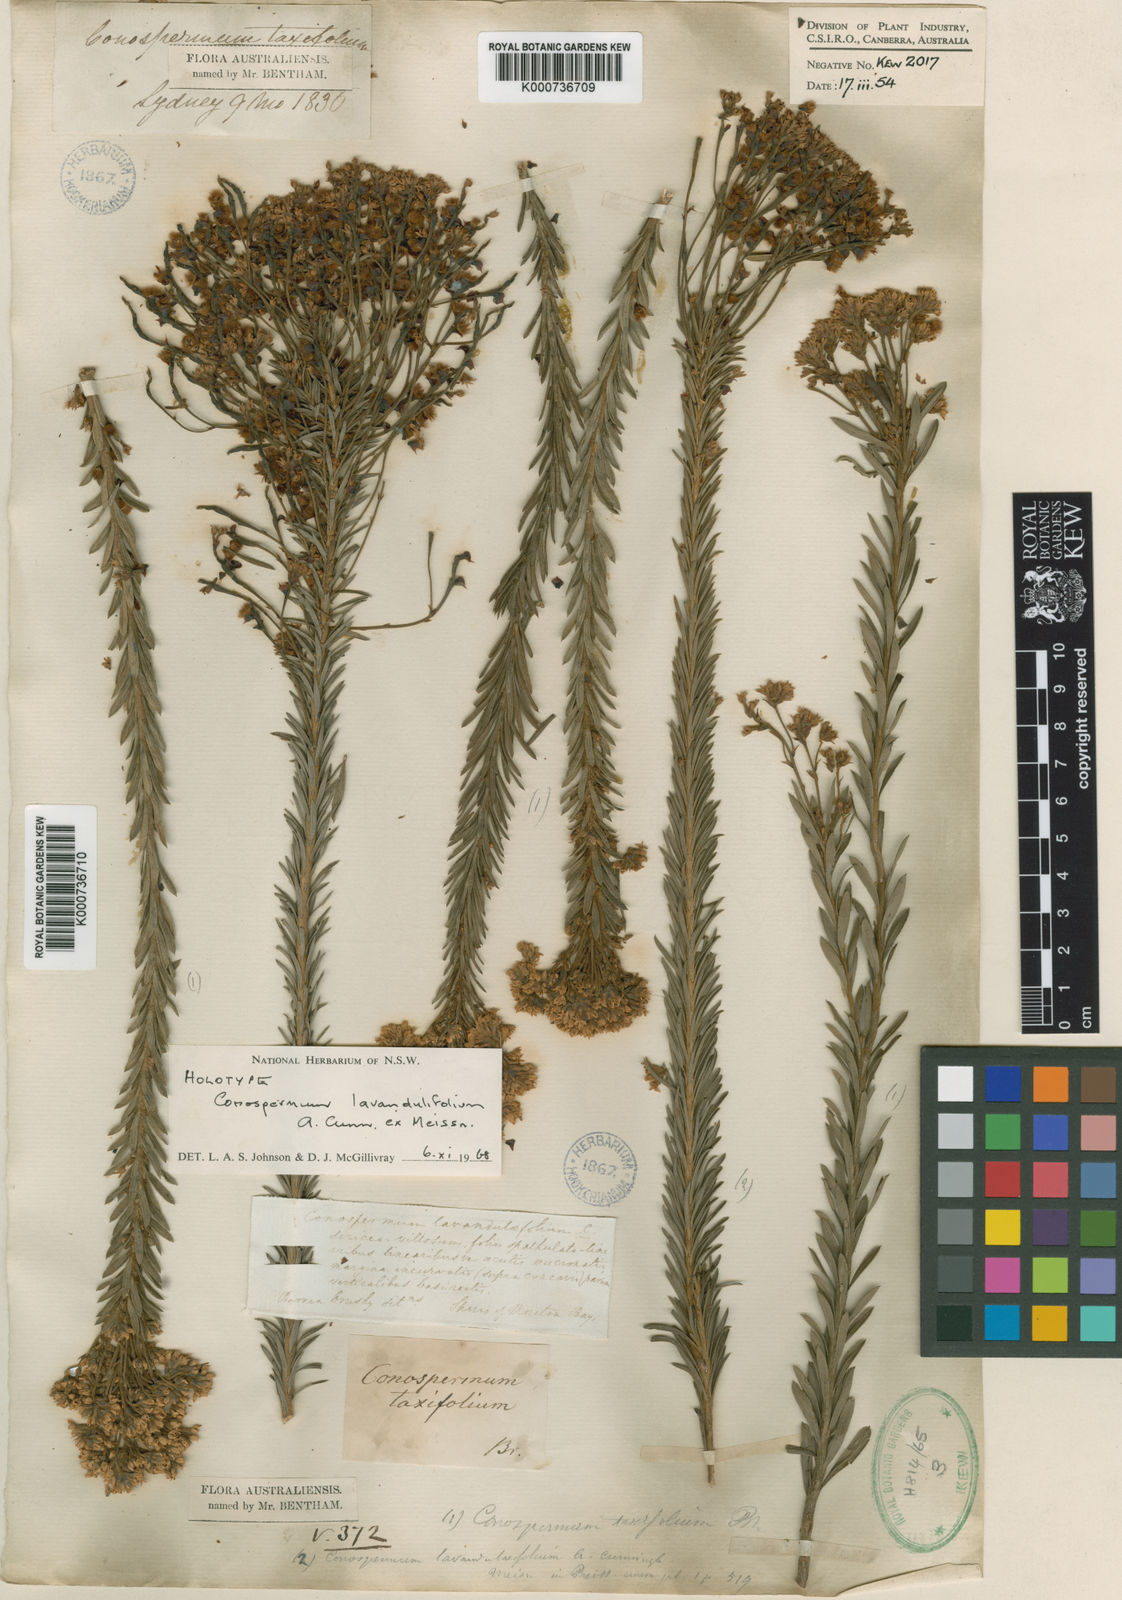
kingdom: Plantae
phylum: Tracheophyta
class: Magnoliopsida
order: Proteales
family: Proteaceae
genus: Conospermum
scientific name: Conospermum
